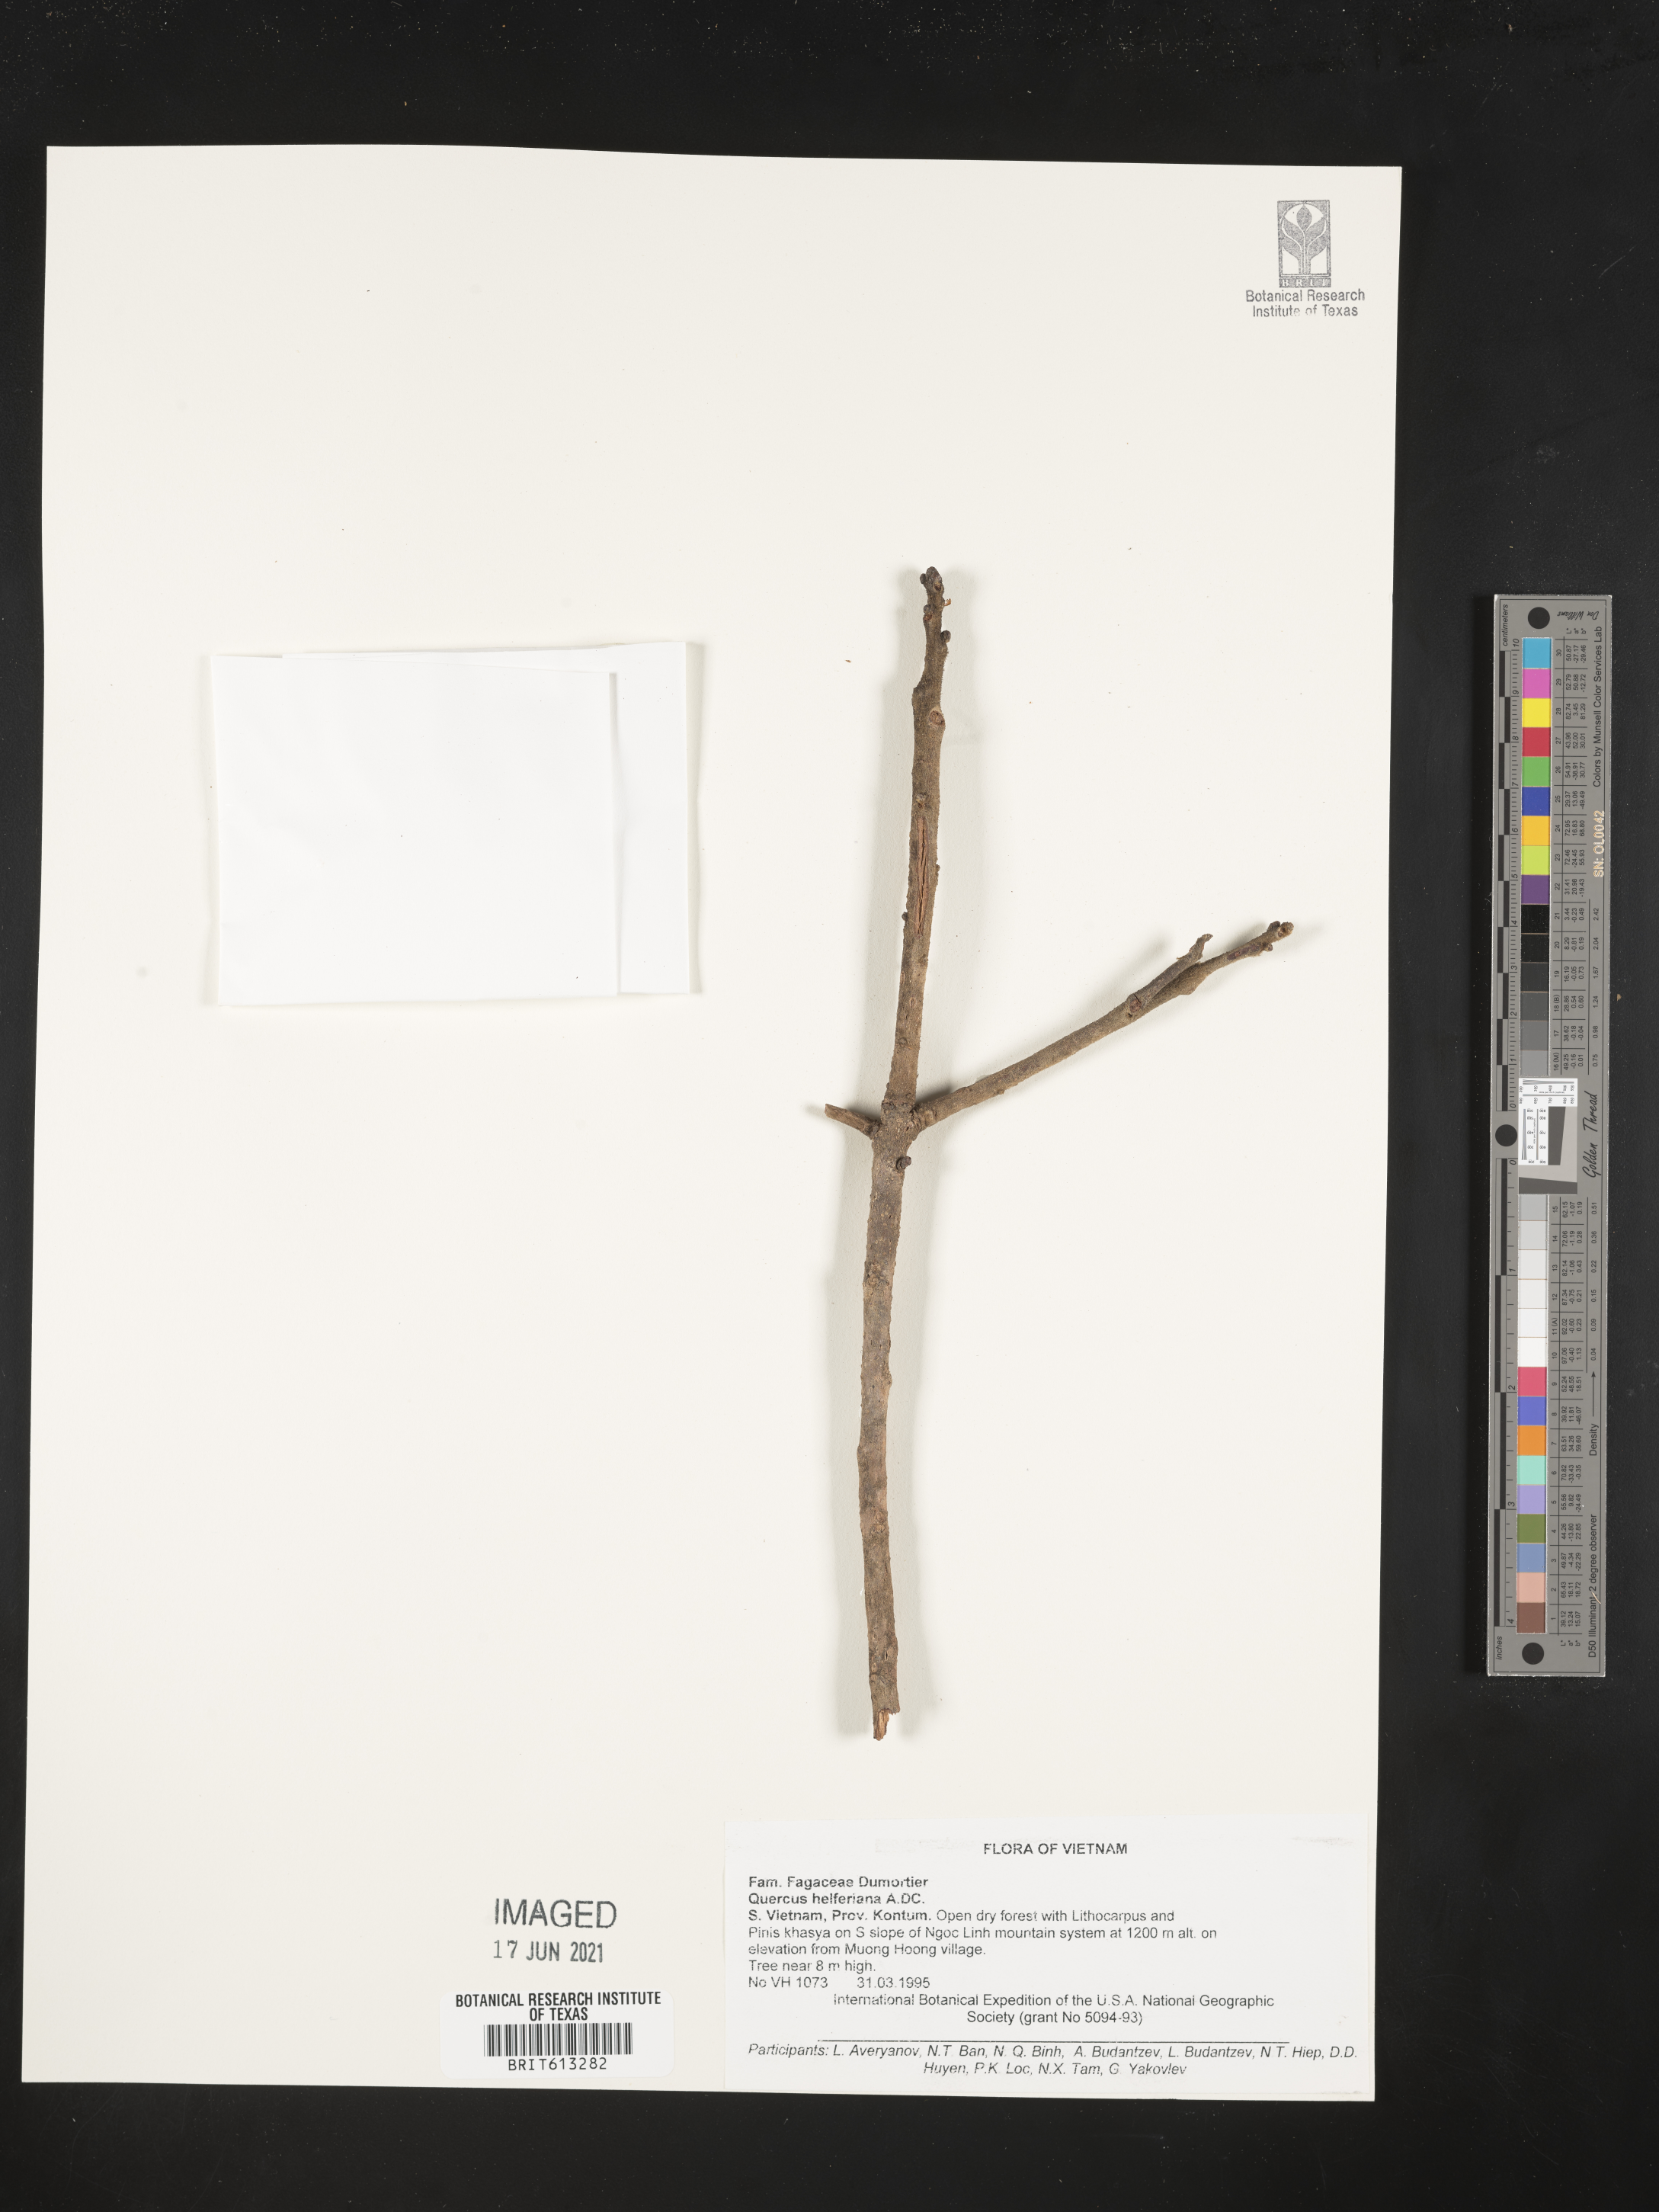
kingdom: Plantae
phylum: Tracheophyta
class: Magnoliopsida
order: Fagales
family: Fagaceae
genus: Quercus
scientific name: Quercus helferiana
